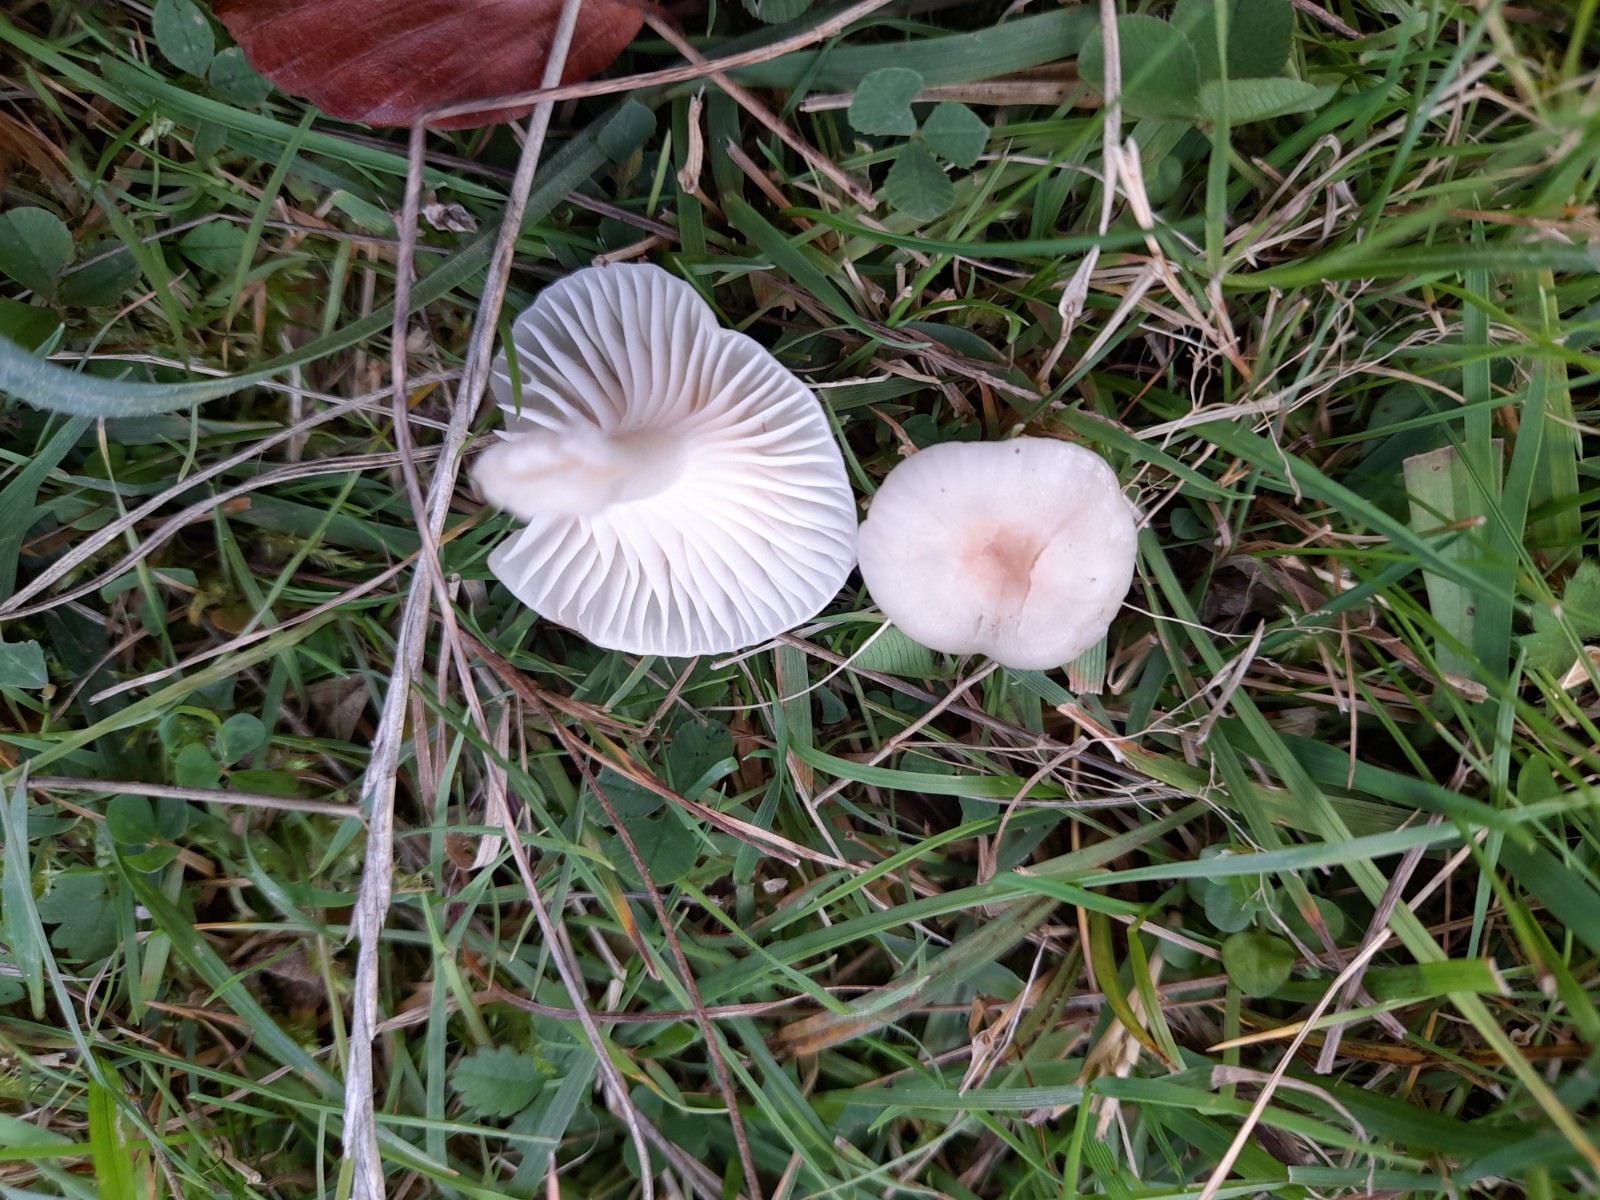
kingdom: Fungi
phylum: Basidiomycota
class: Agaricomycetes
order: Agaricales
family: Hygrophoraceae
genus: Cuphophyllus
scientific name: Cuphophyllus virgineus
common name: snehvid vokshat
